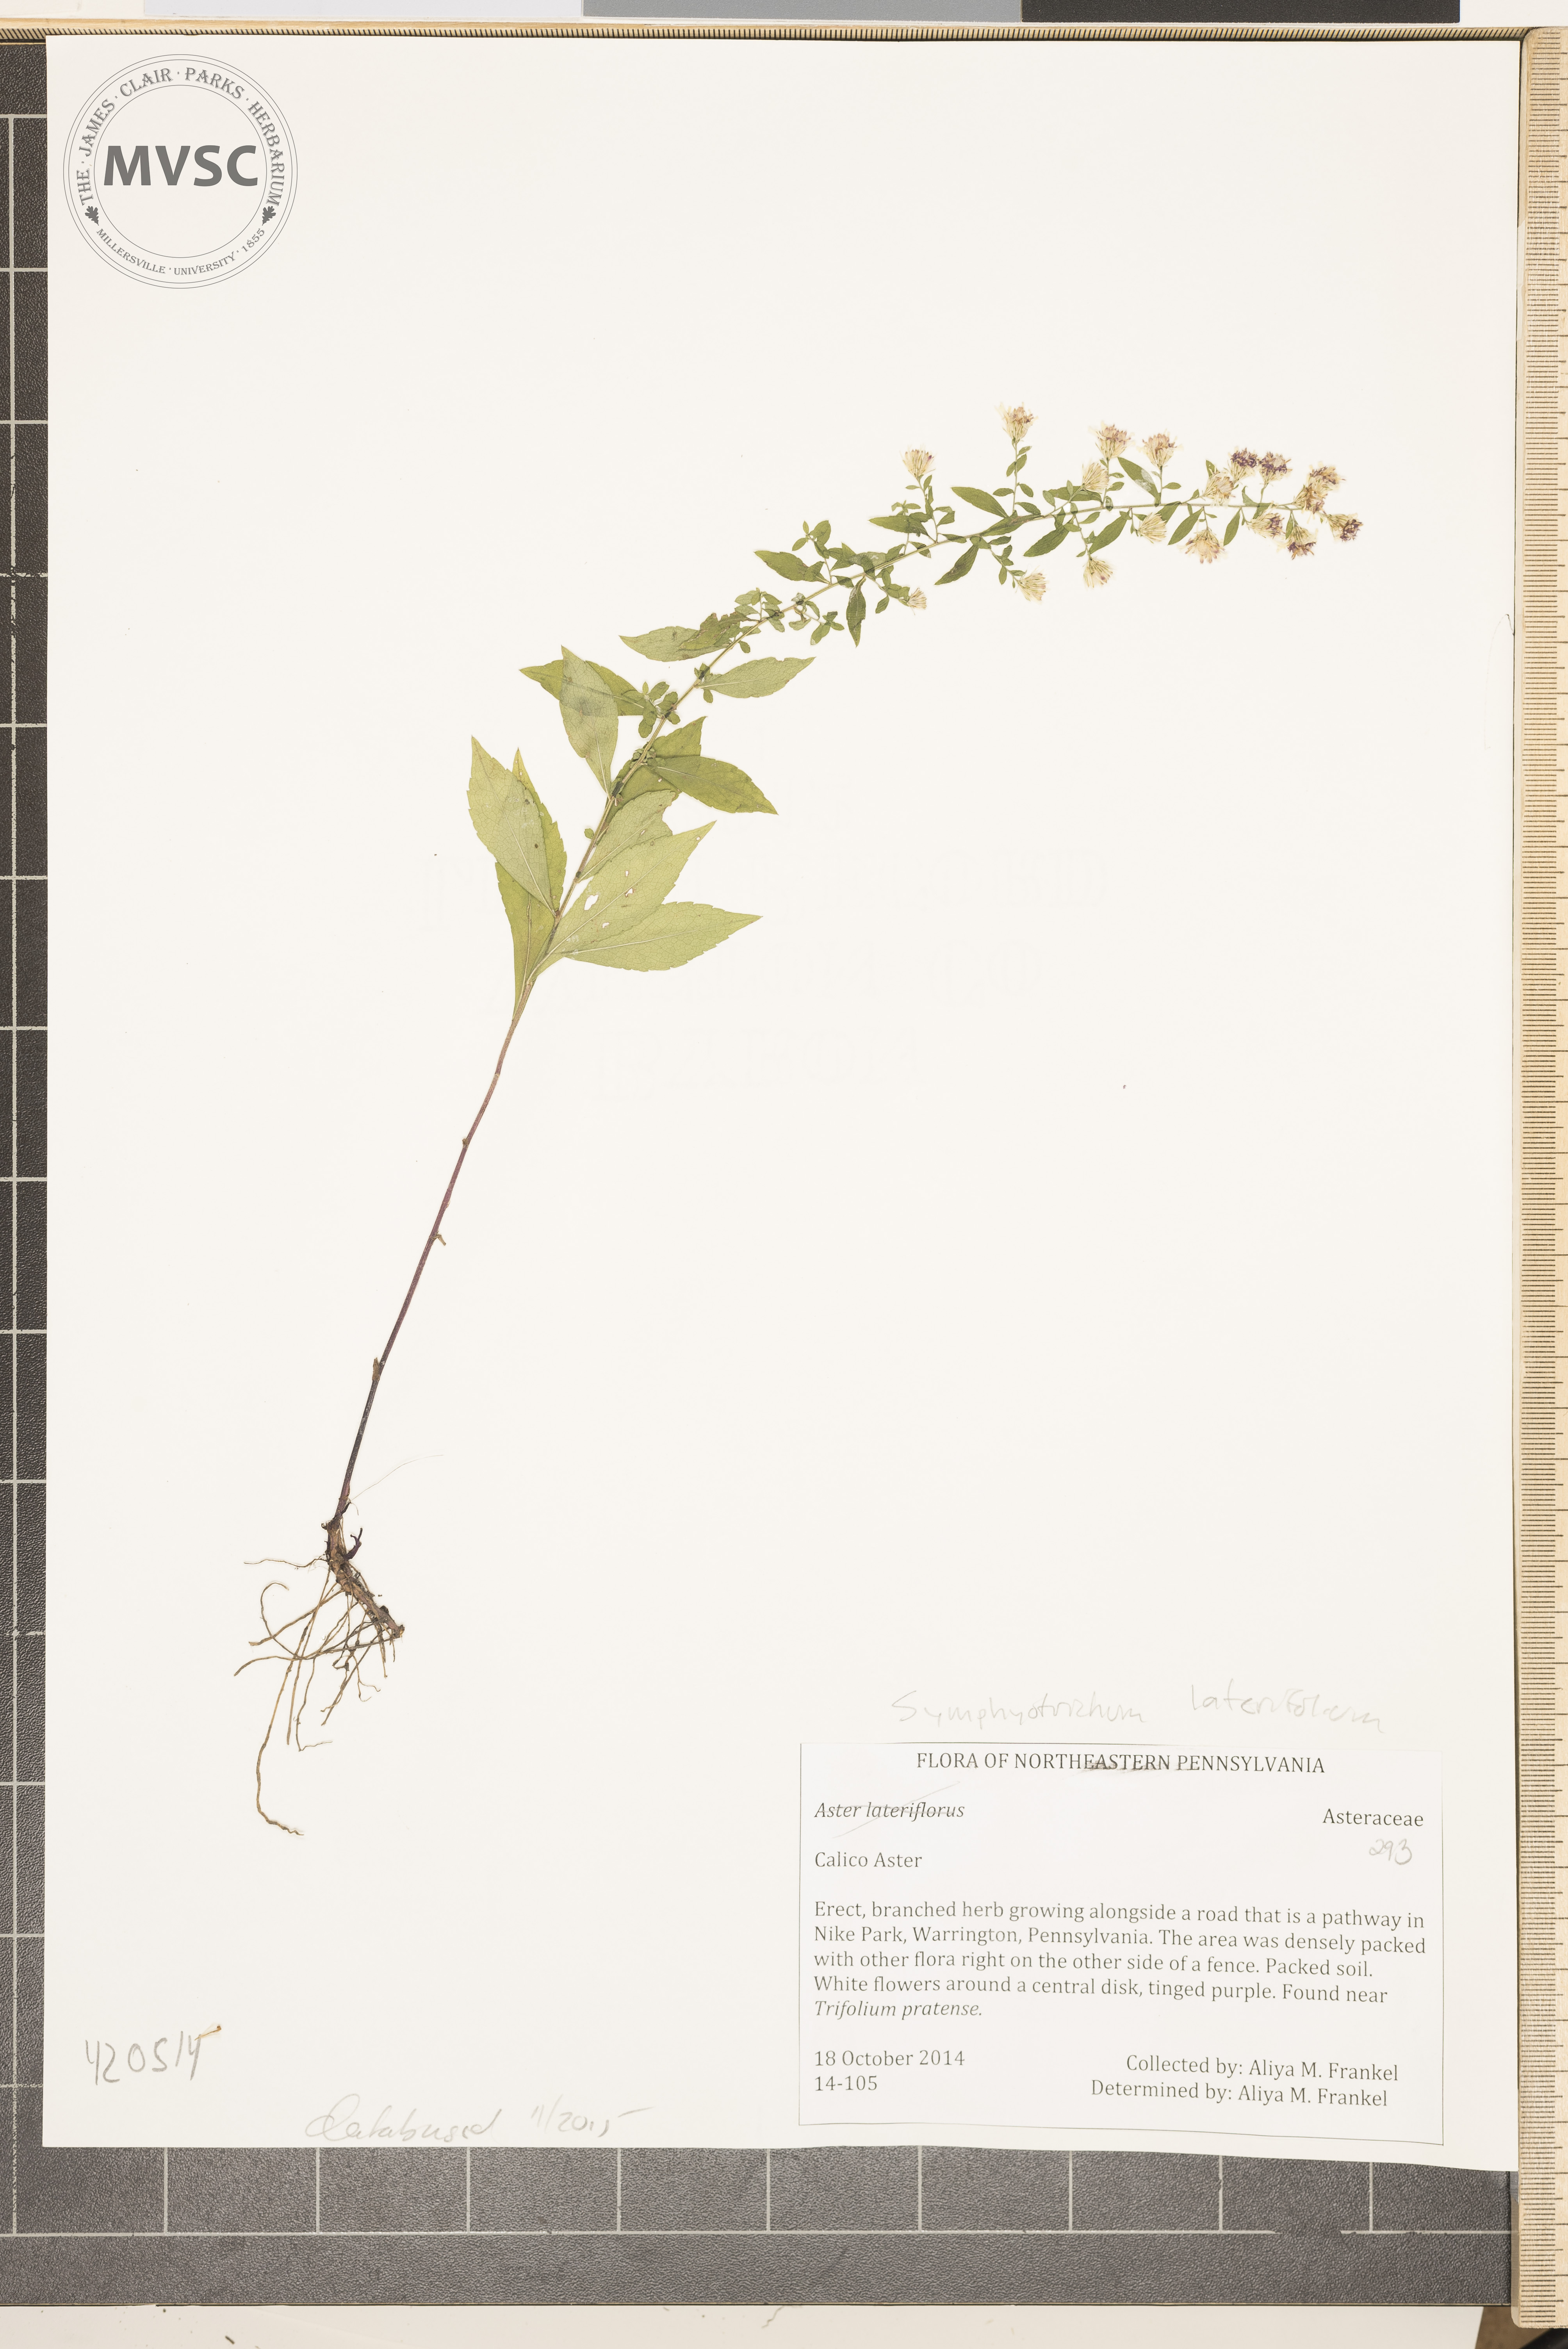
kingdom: Plantae
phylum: Tracheophyta
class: Magnoliopsida
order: Asterales
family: Asteraceae
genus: Symphyotrichum
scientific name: Symphyotrichum lateriflorum
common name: Calico aster
